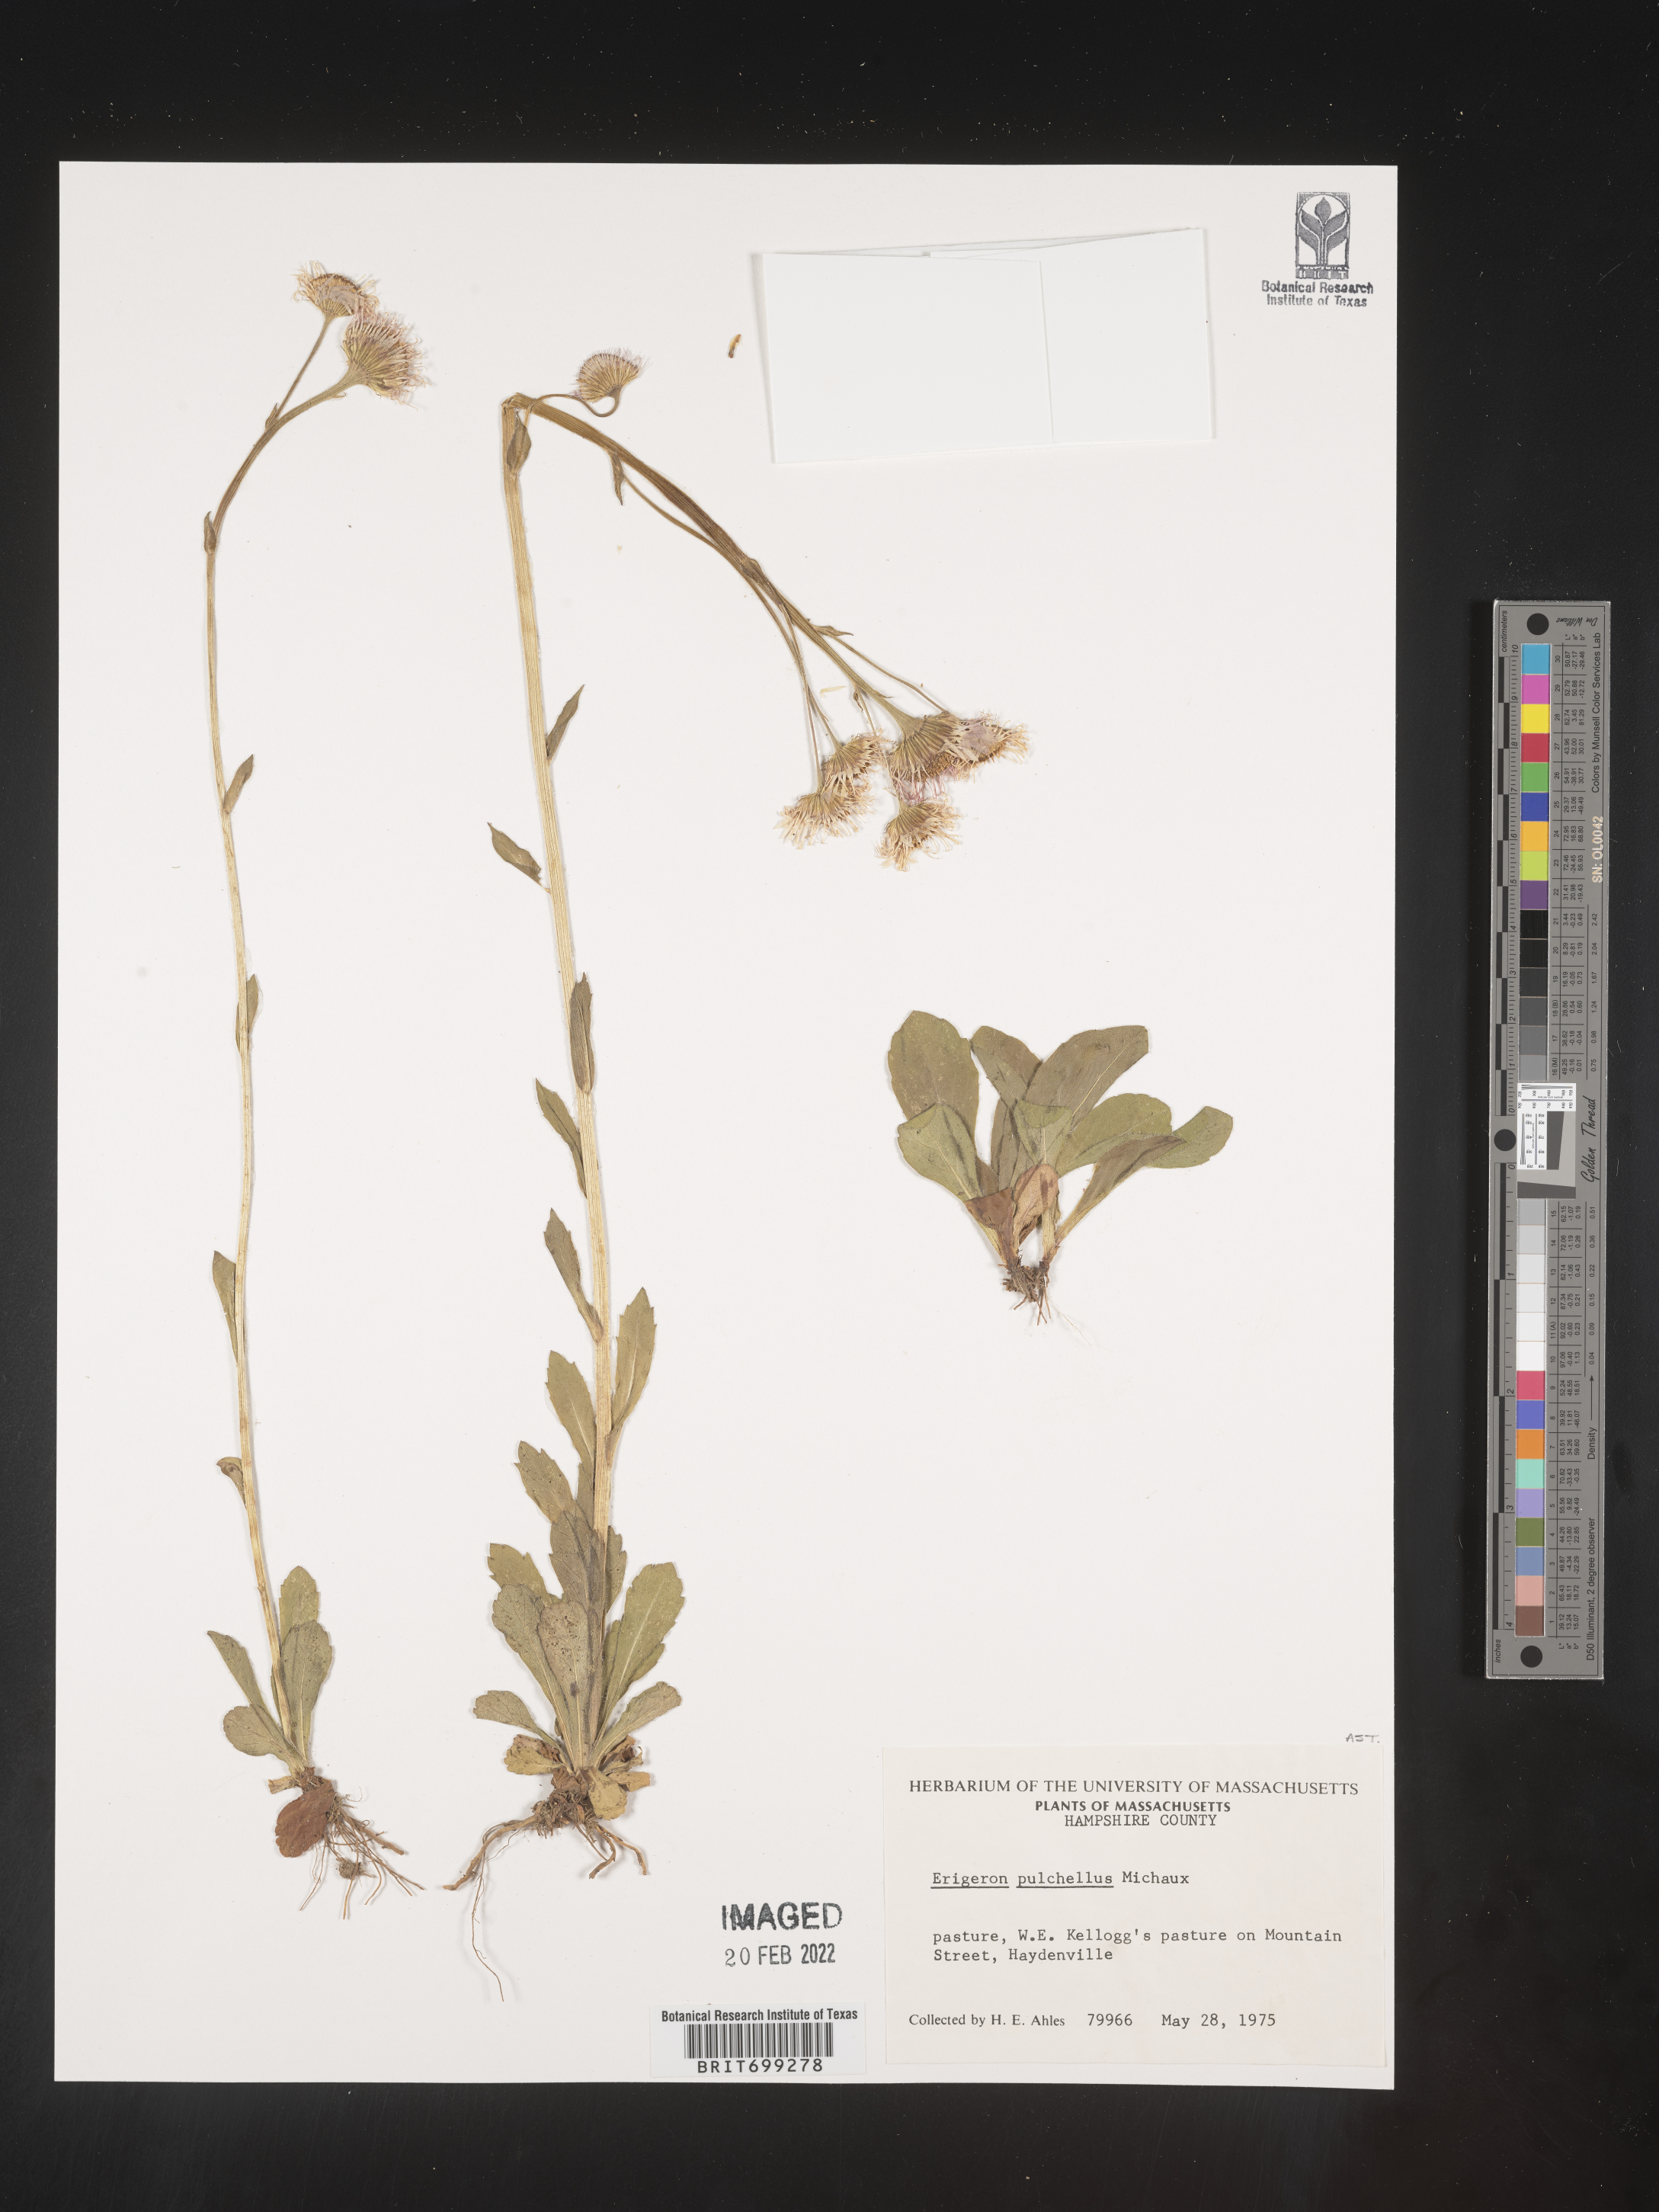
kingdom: Plantae
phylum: Tracheophyta
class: Magnoliopsida
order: Asterales
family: Asteraceae
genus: Erigeron
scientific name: Erigeron pulchellus
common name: Hairy fleabane
